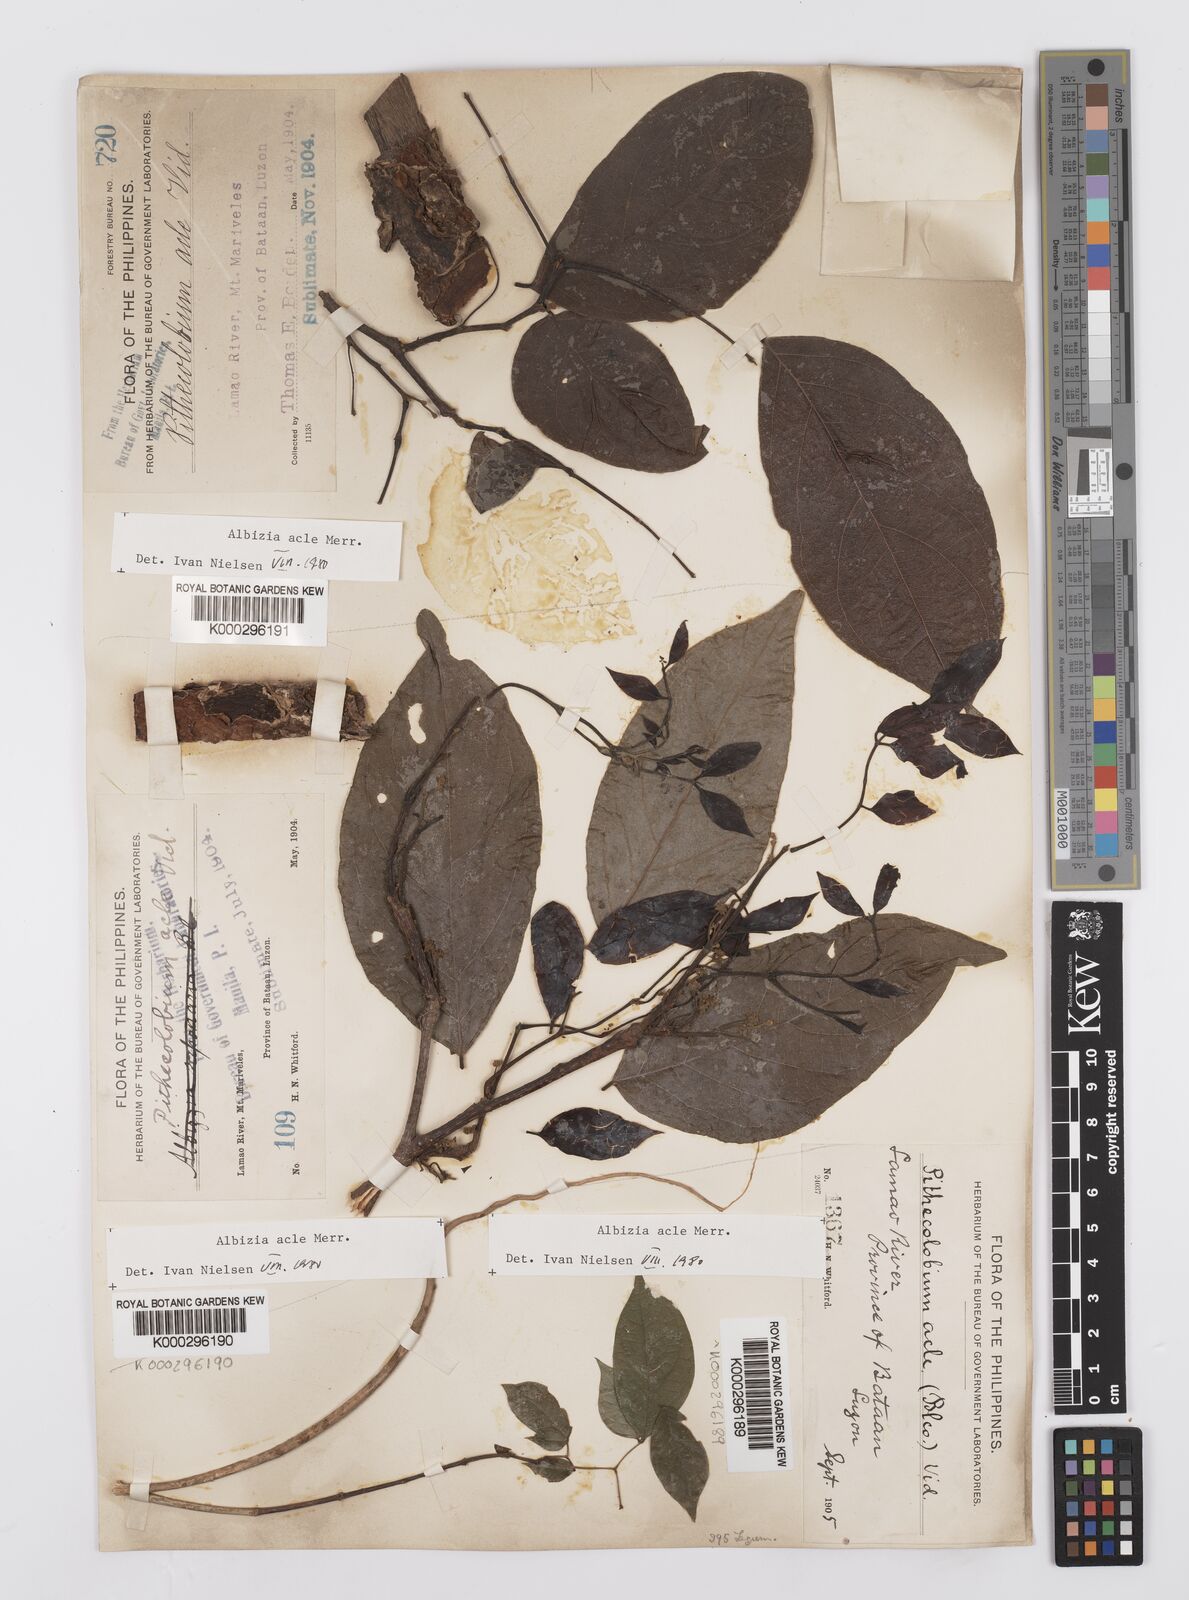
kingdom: Plantae
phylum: Tracheophyta
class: Magnoliopsida
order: Fabales
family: Fabaceae
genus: Albizia
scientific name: Albizia acle
